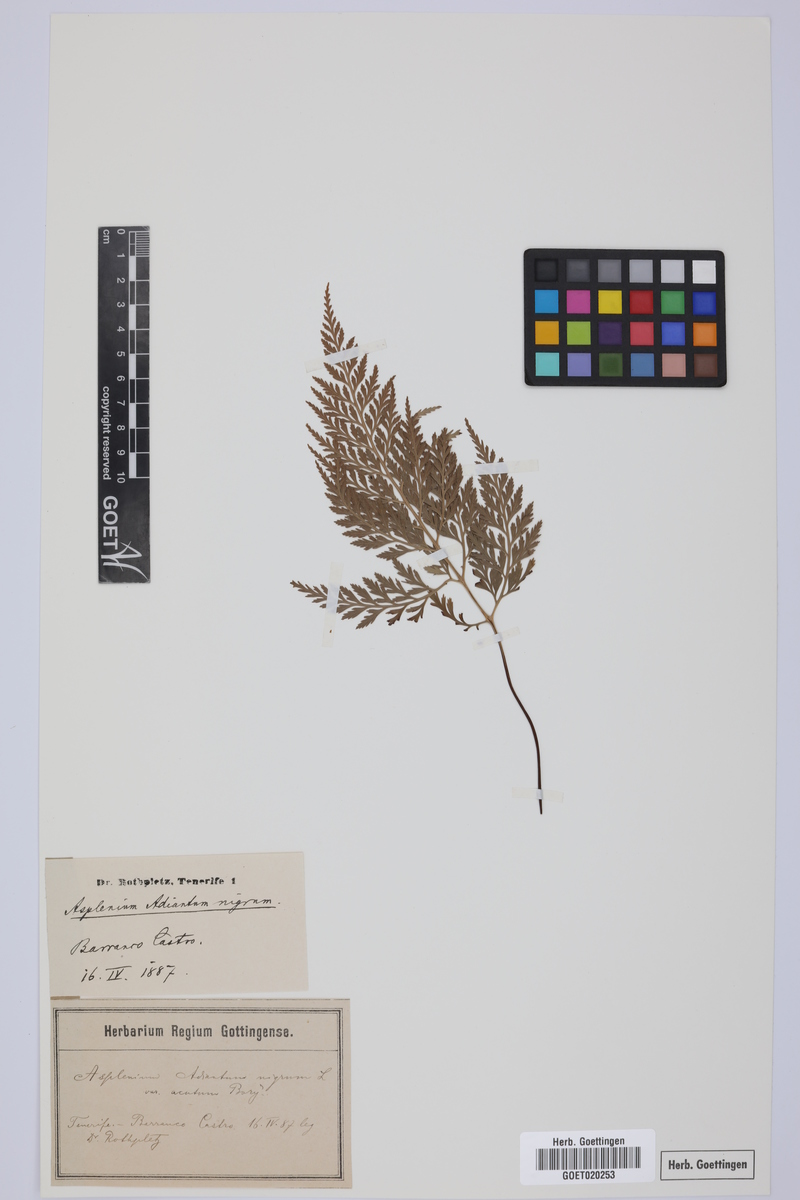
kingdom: Plantae
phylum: Tracheophyta
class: Polypodiopsida
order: Polypodiales
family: Aspleniaceae
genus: Asplenium
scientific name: Asplenium onopteris
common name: Irish spleenwort
